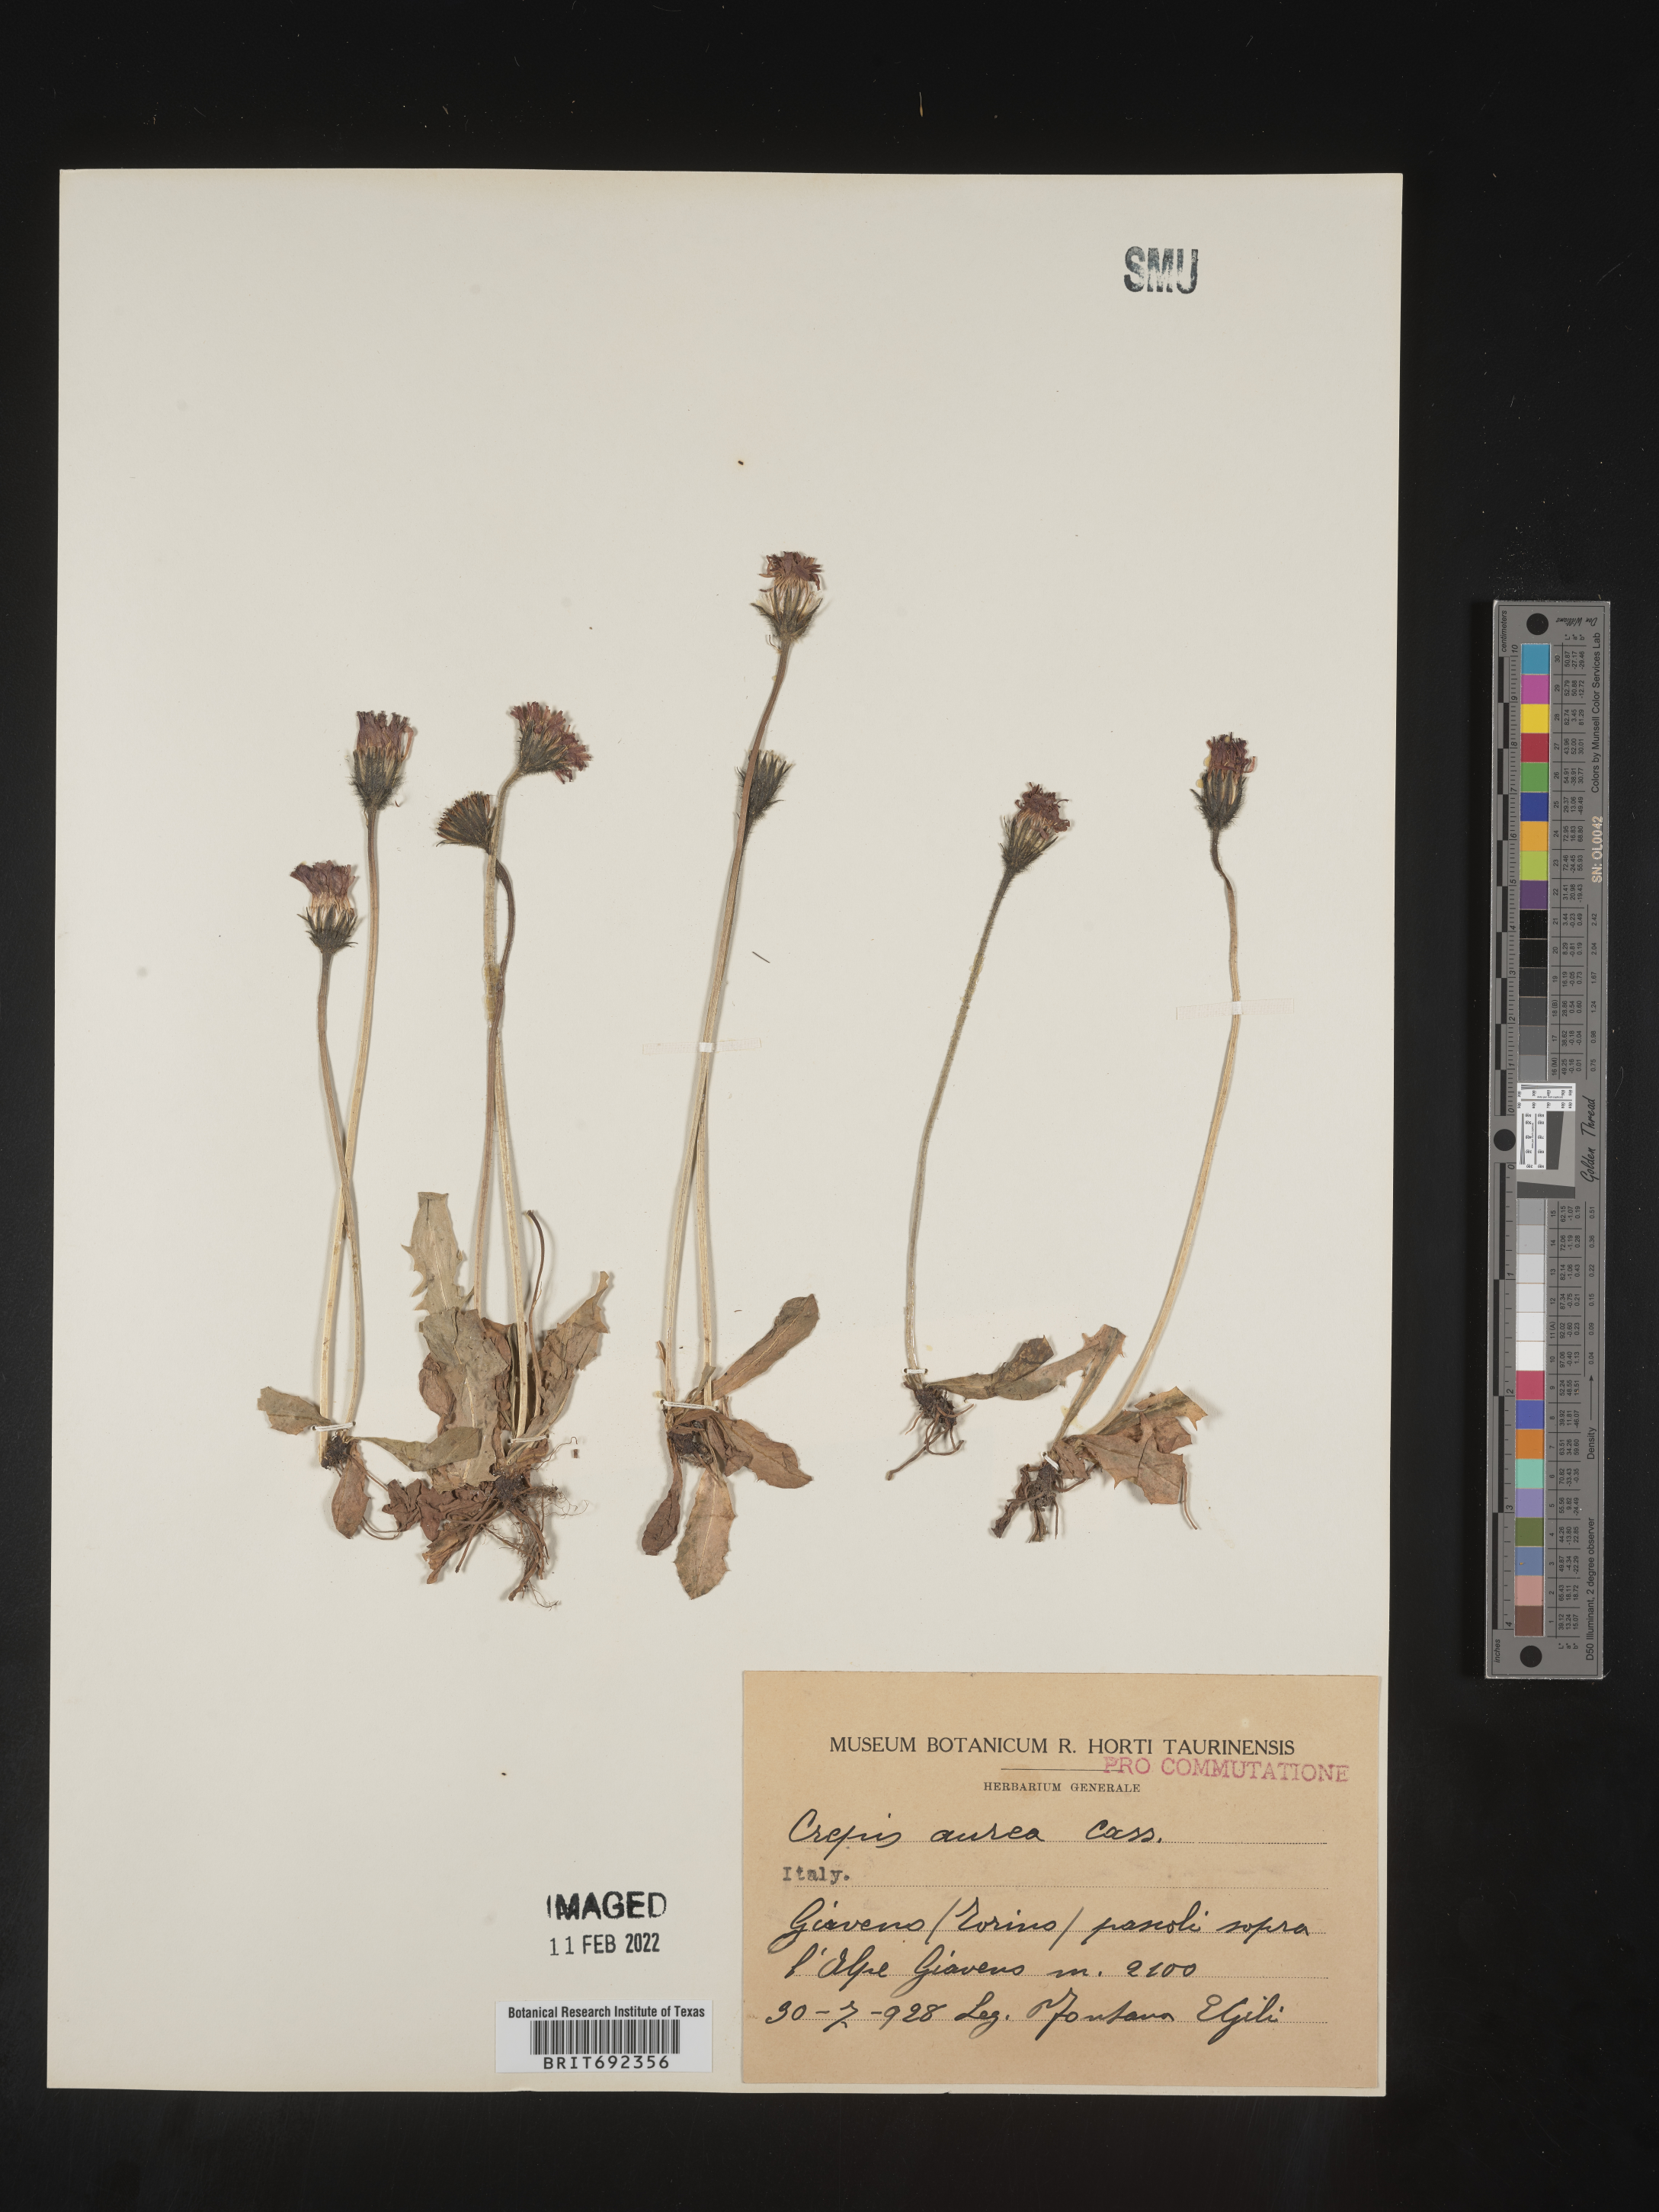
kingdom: Plantae
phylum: Tracheophyta
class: Magnoliopsida
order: Asterales
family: Asteraceae
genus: Crepis
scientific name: Crepis
